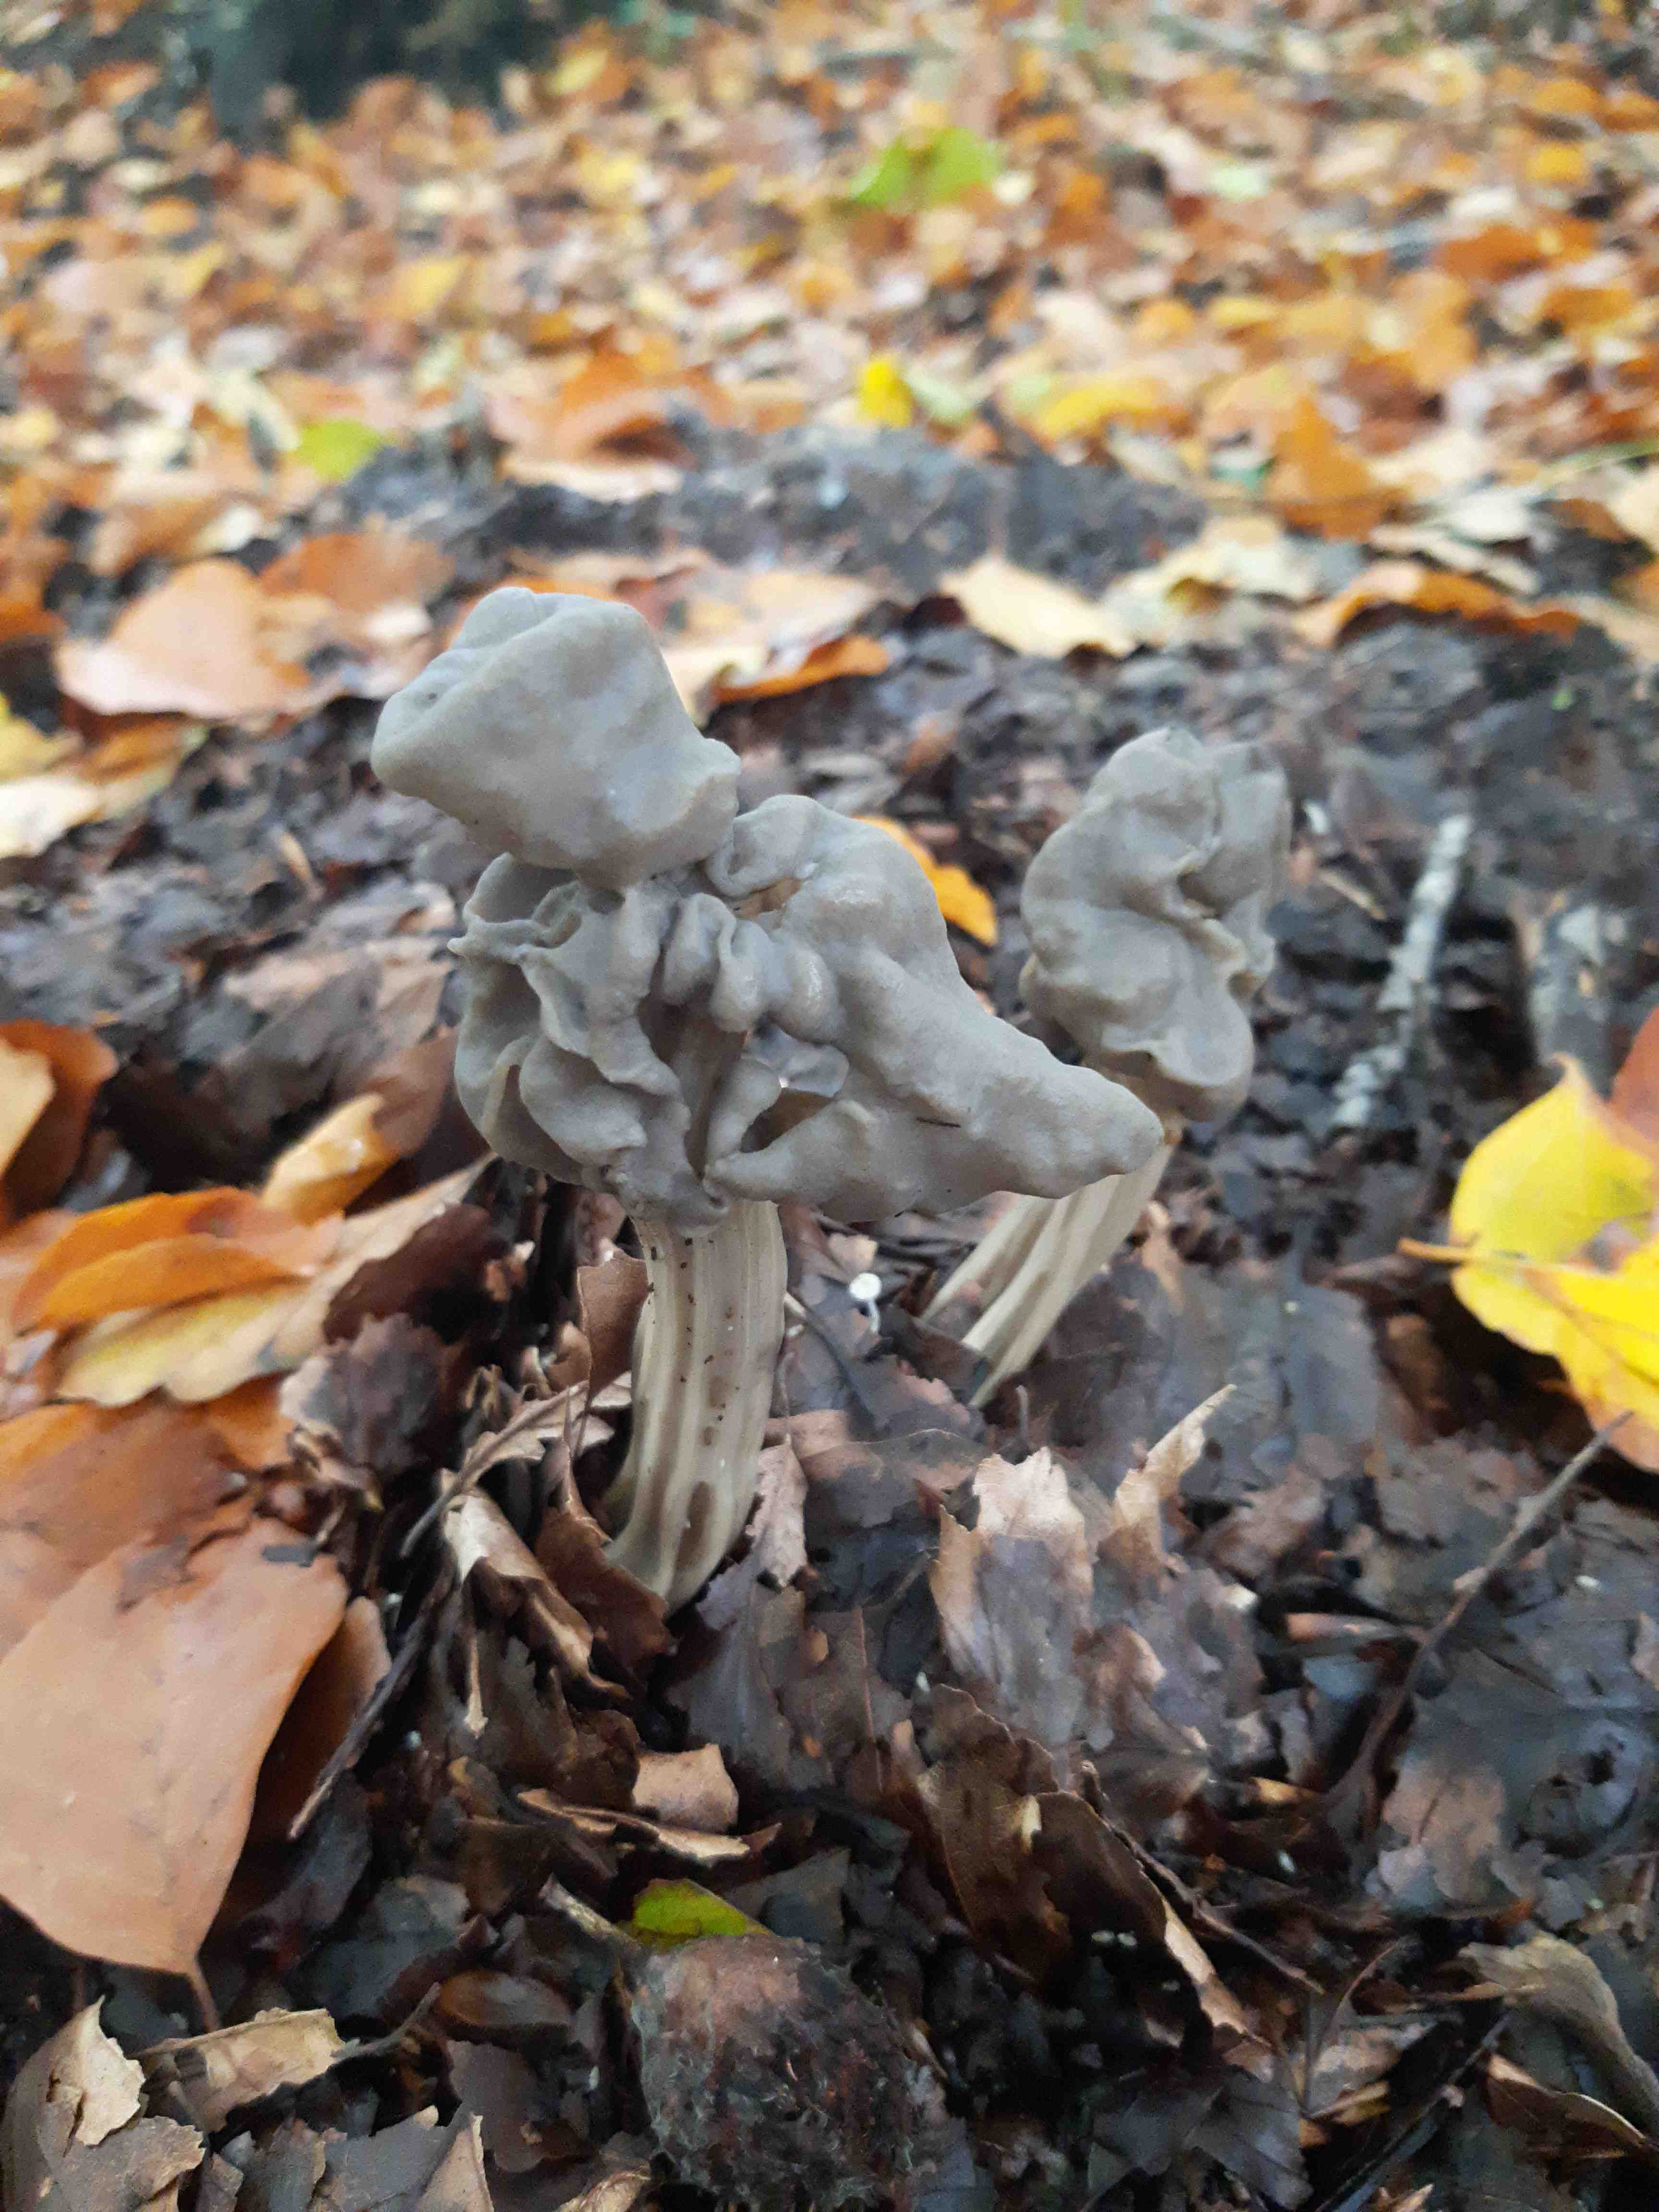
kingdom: Fungi
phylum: Ascomycota
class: Pezizomycetes
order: Pezizales
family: Helvellaceae
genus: Helvella
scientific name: Helvella lacunosa
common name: grubet foldhat
